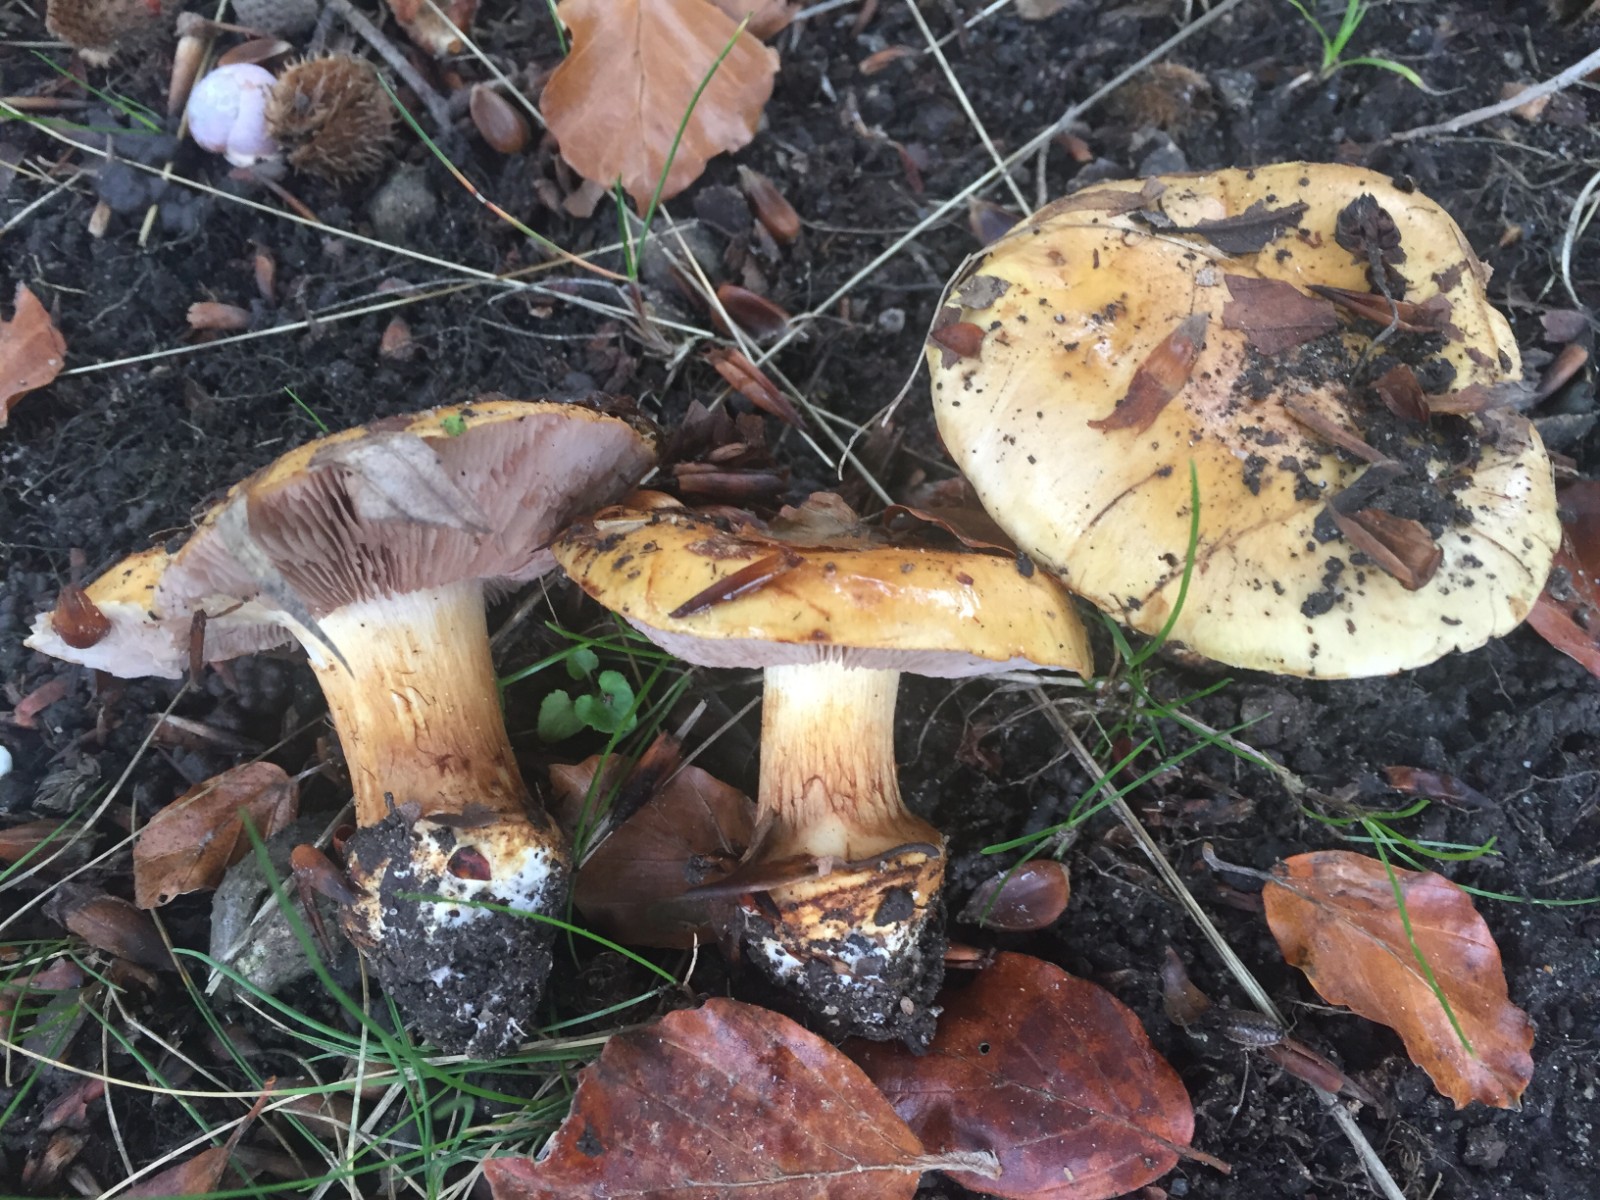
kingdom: Fungi
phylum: Basidiomycota
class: Agaricomycetes
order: Agaricales
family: Cortinariaceae
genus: Calonarius
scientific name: Calonarius cisticola
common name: cistus-slørhat
